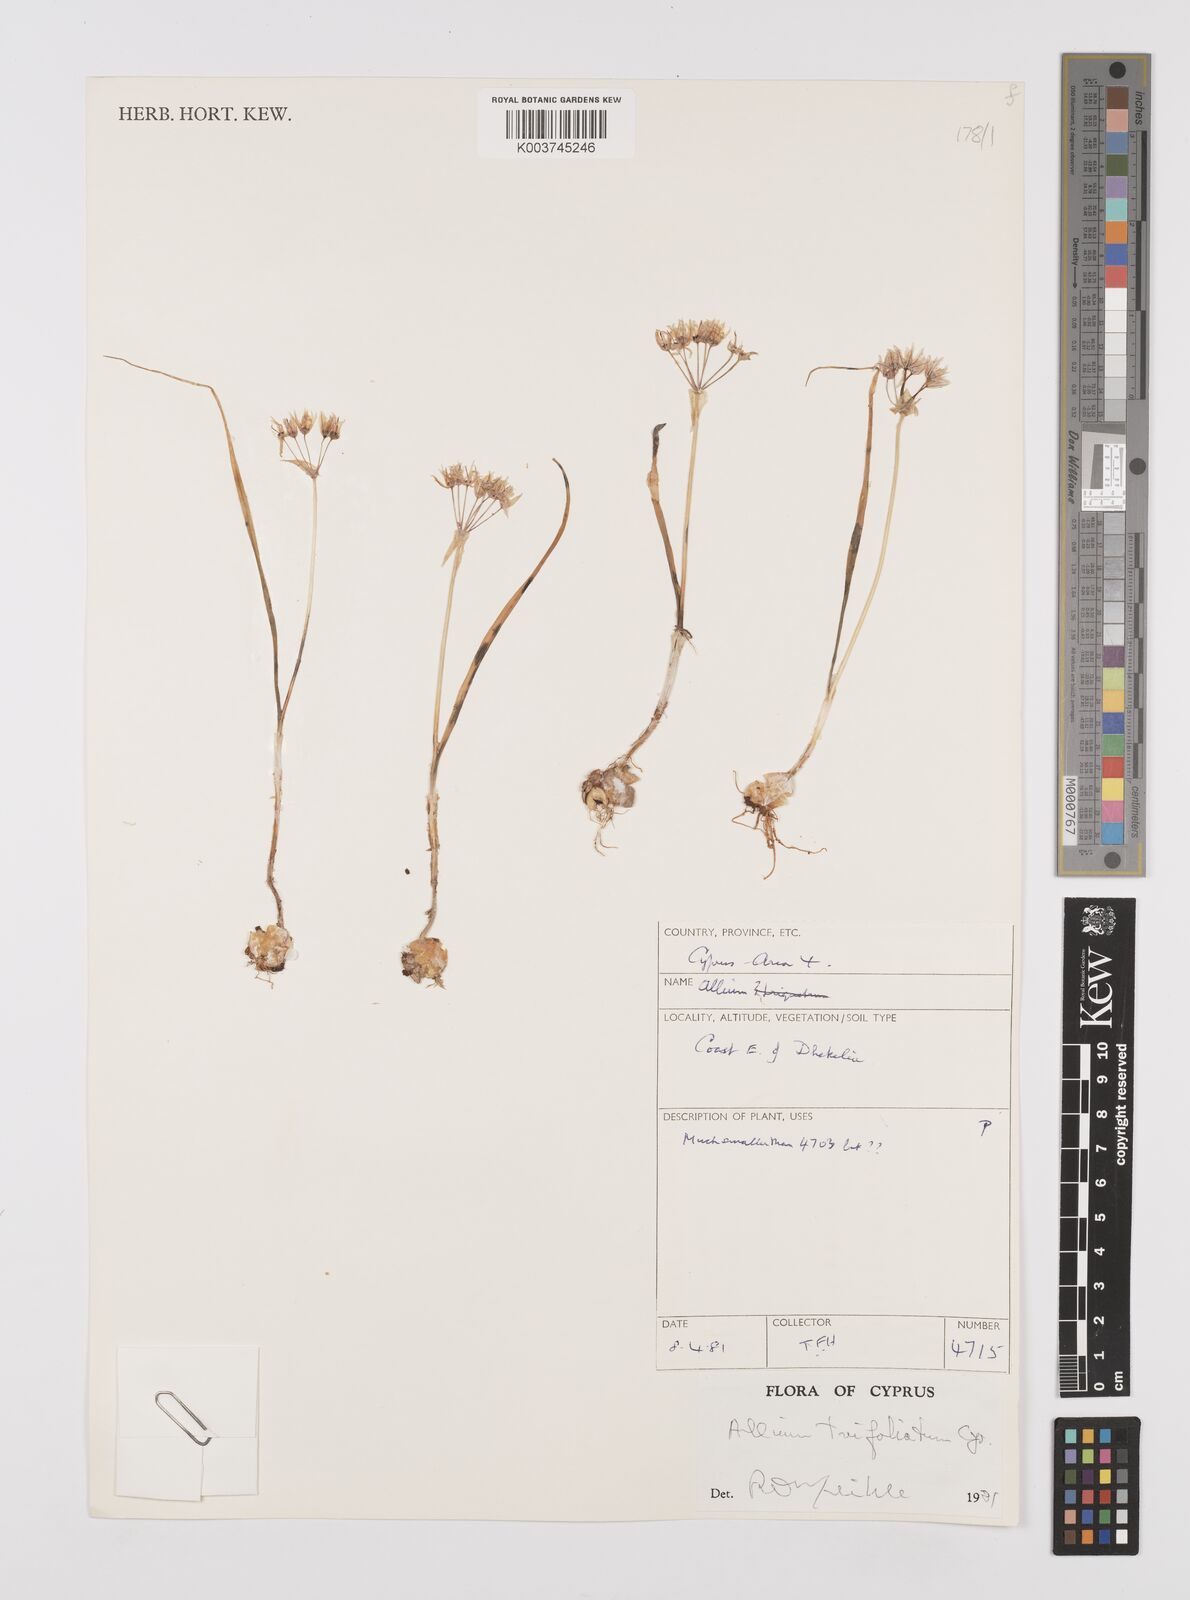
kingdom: Plantae
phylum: Tracheophyta
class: Liliopsida
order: Asparagales
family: Amaryllidaceae
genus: Allium
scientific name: Allium trifoliatum
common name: Pink garlic
